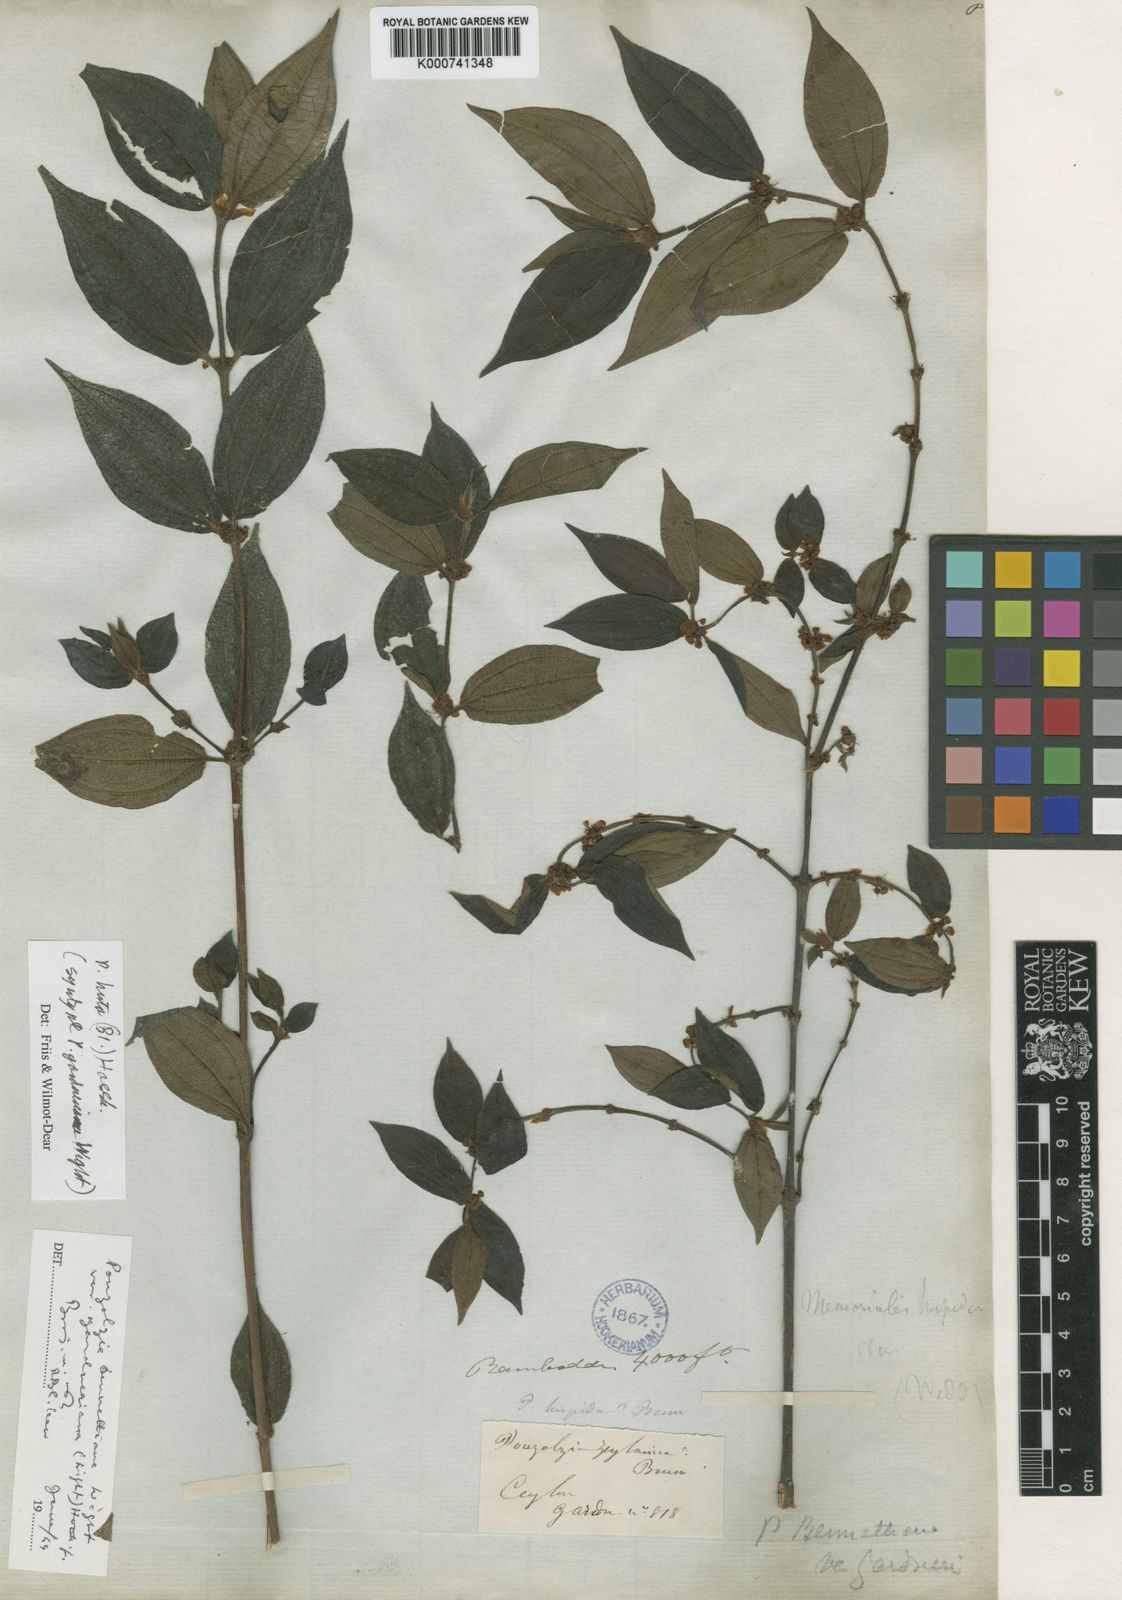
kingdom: Plantae
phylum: Tracheophyta
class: Magnoliopsida
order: Rosales
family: Urticaceae
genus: Gonostegia
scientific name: Gonostegia triandra
